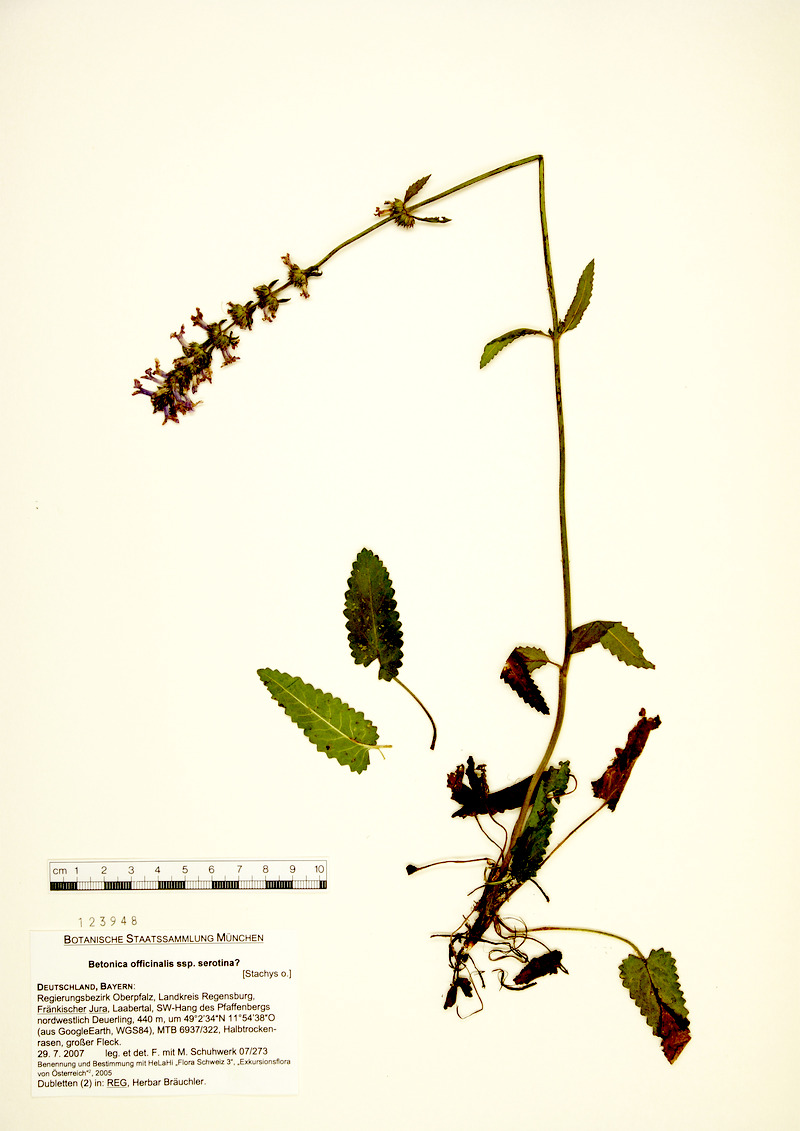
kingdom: Plantae
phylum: Tracheophyta
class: Magnoliopsida
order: Lamiales
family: Lamiaceae
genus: Betonica
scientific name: Betonica officinalis
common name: Bishop's-wort
